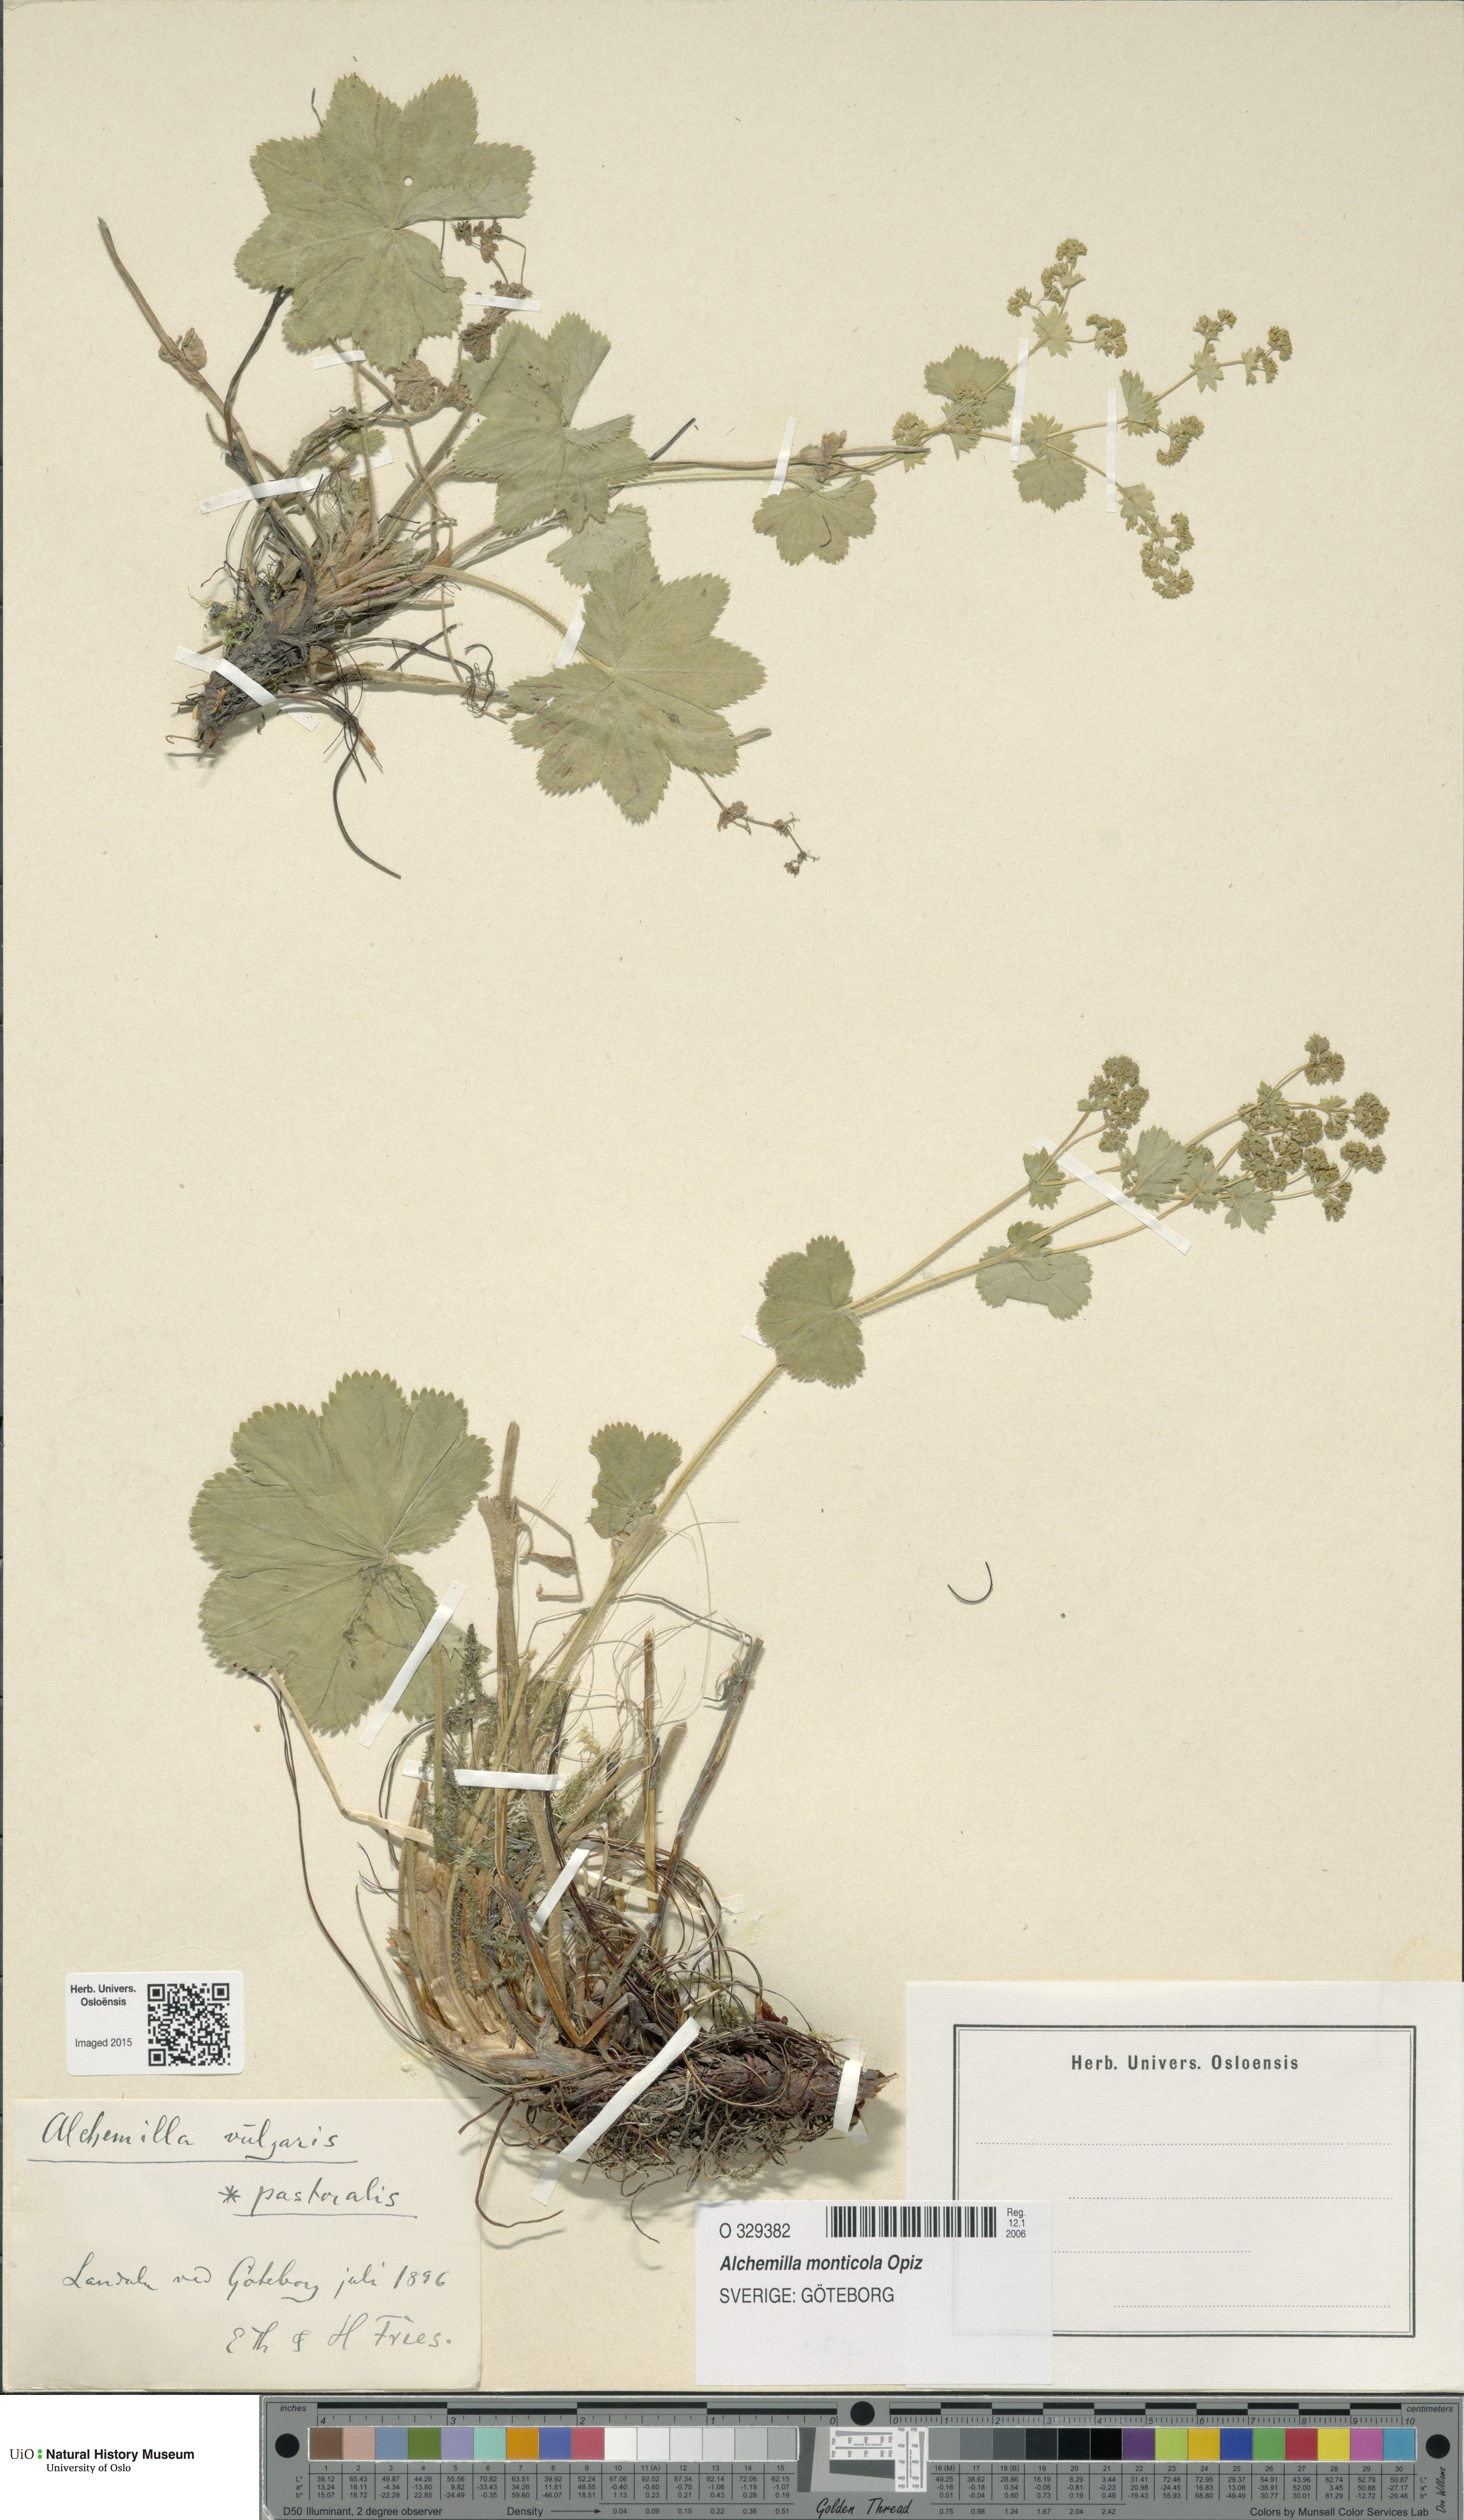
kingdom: Plantae
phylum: Tracheophyta
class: Magnoliopsida
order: Rosales
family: Rosaceae
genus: Alchemilla
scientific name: Alchemilla monticola
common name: Hairy lady's mantle
